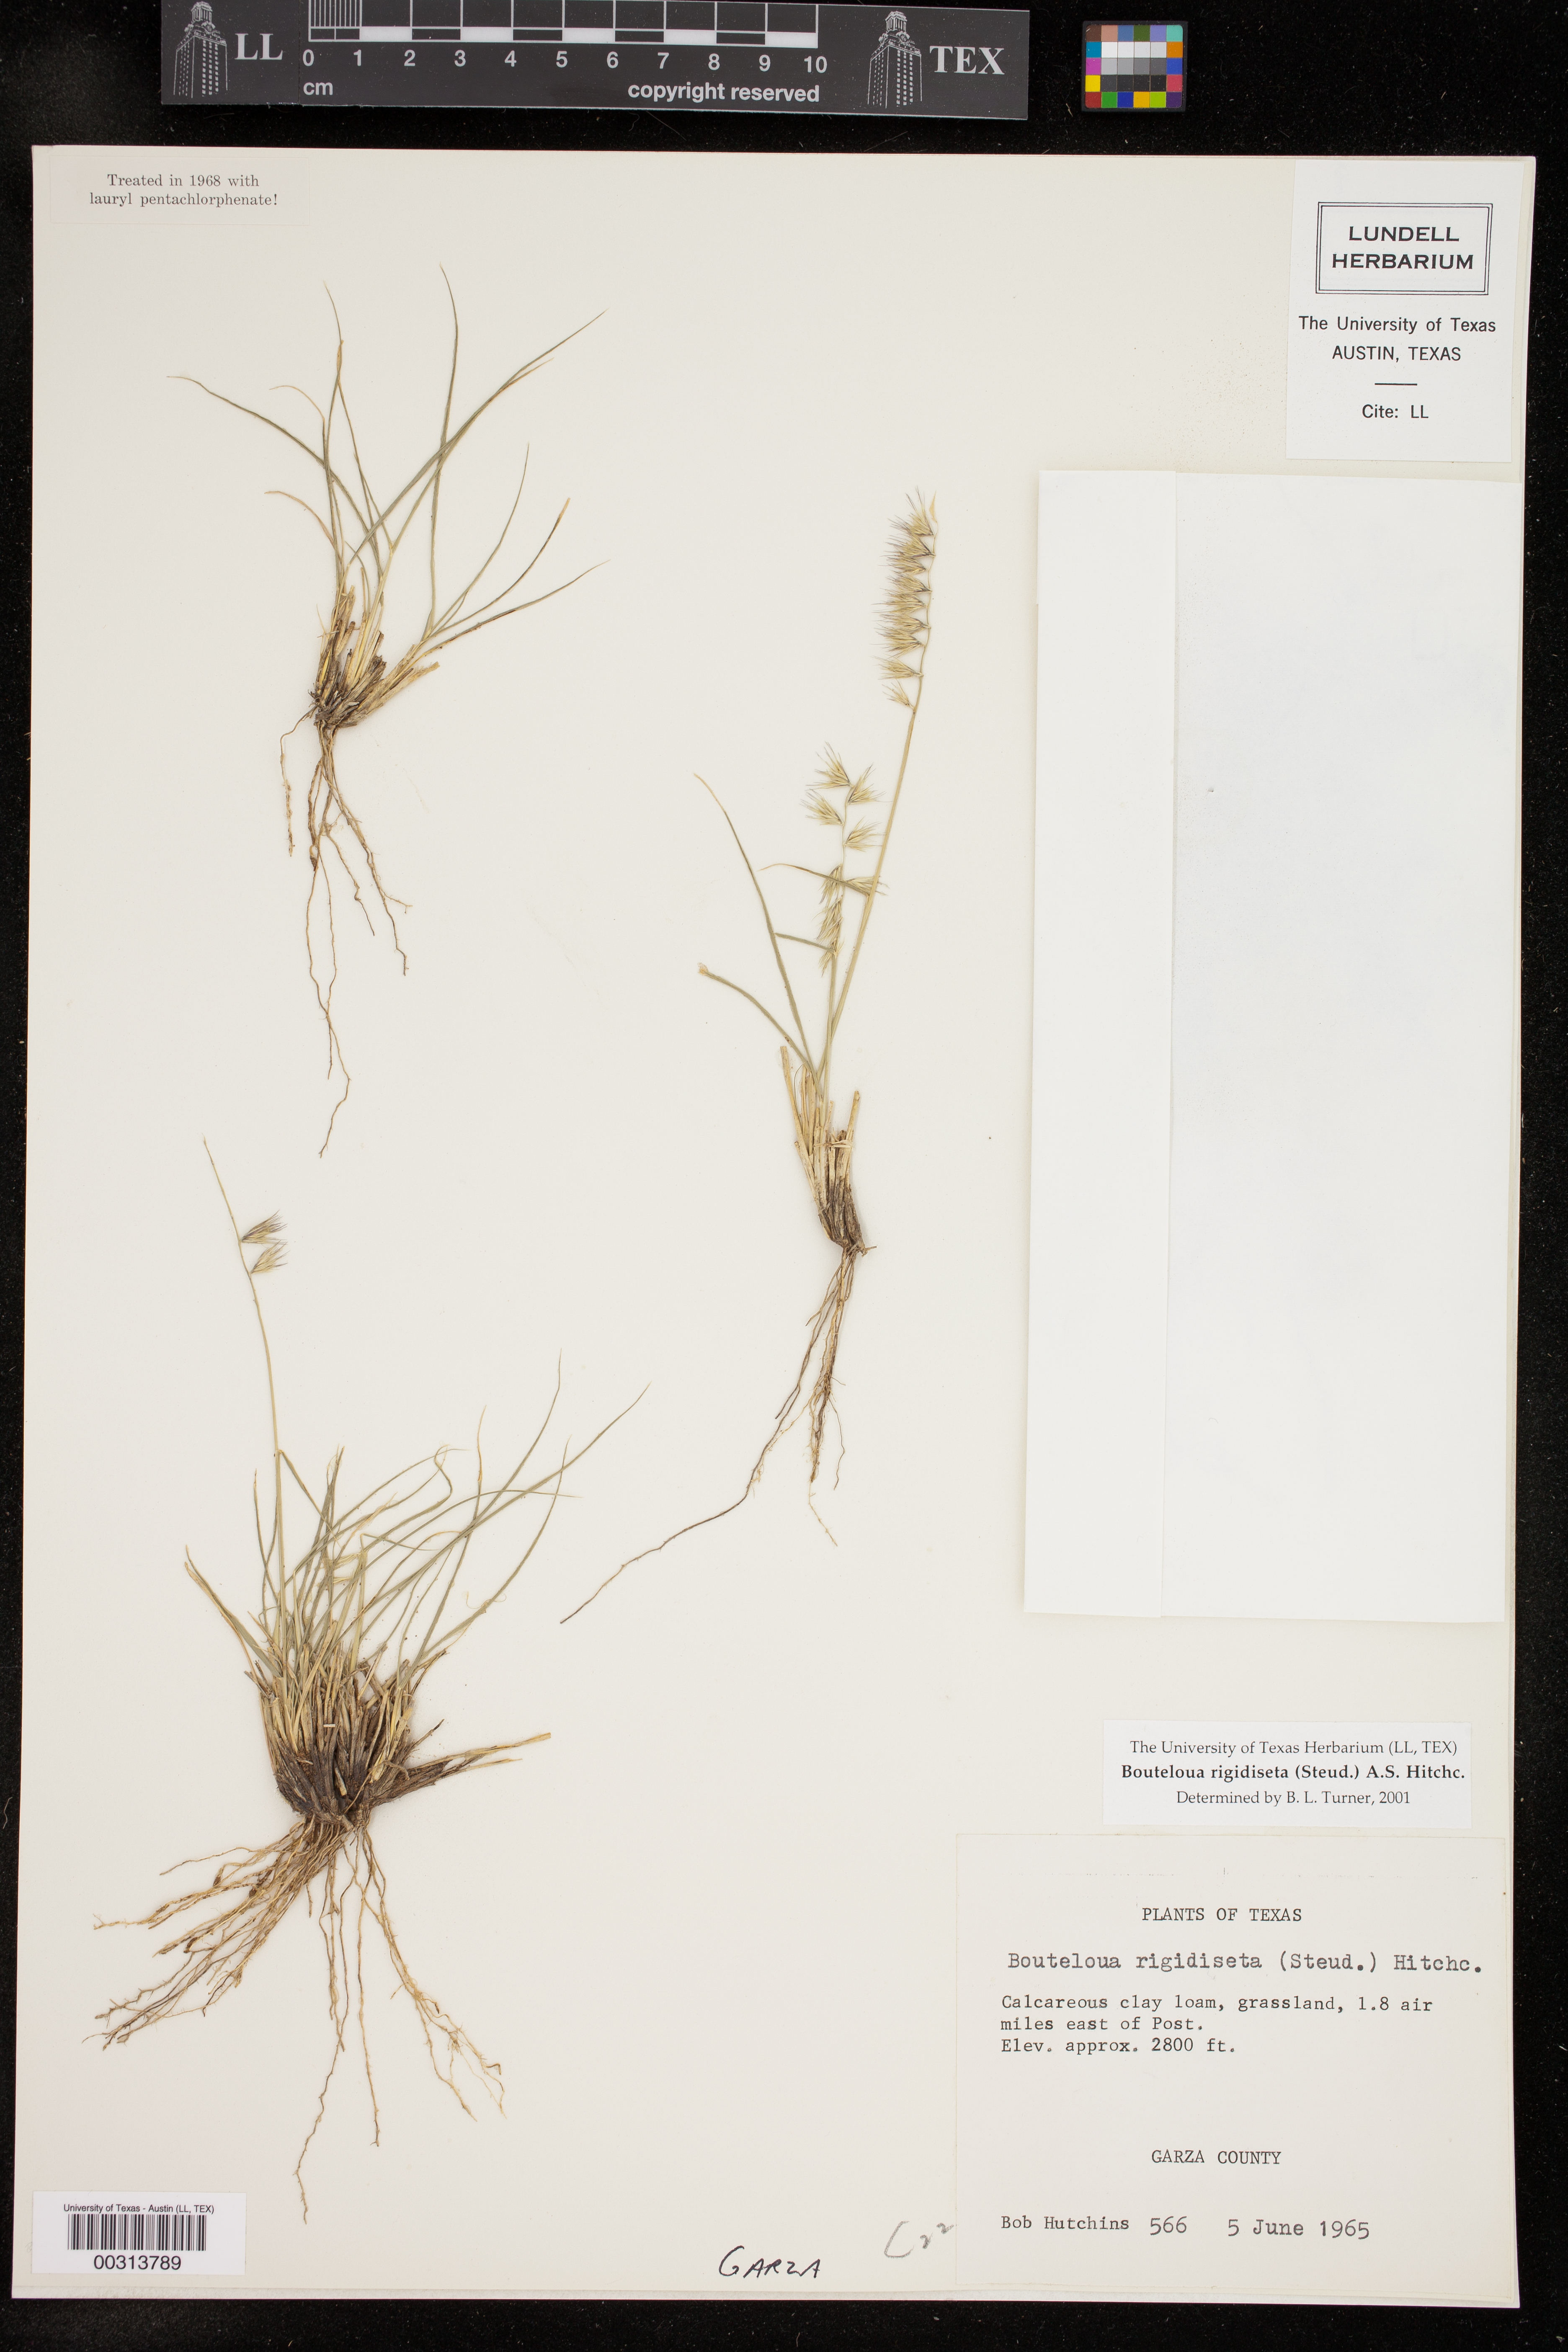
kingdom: Plantae
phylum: Tracheophyta
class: Liliopsida
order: Poales
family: Poaceae
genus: Bouteloua
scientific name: Bouteloua rigidiseta
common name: Texas grama
